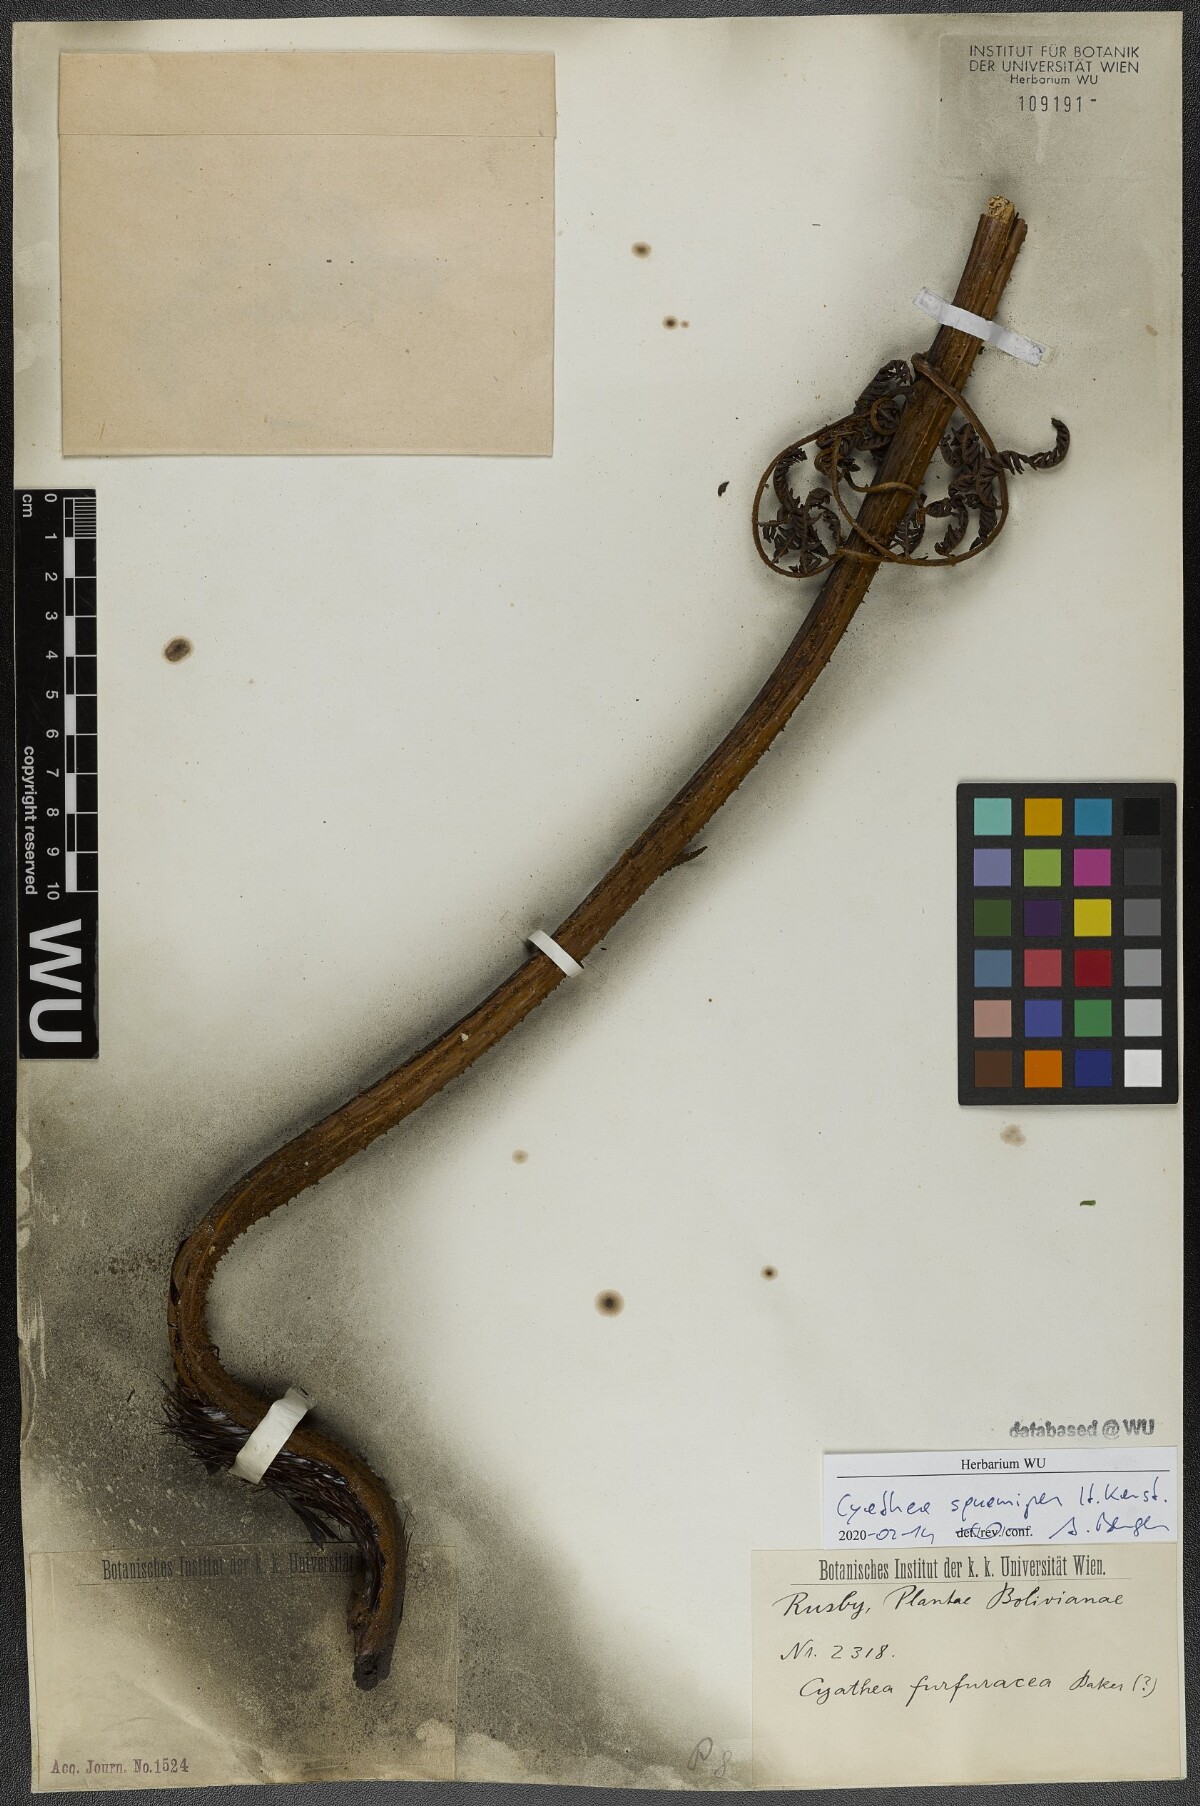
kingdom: Plantae
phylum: Tracheophyta
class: Polypodiopsida
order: Cyatheales
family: Cyatheaceae
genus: Cyathea
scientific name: Cyathea squamipes
